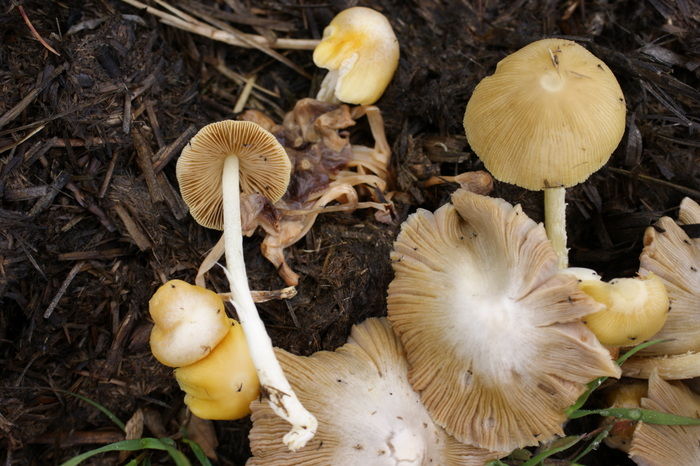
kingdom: Fungi
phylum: Basidiomycota
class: Agaricomycetes
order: Agaricales
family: Bolbitiaceae
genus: Bolbitius
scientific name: Bolbitius titubans
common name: almindelig gulhat
